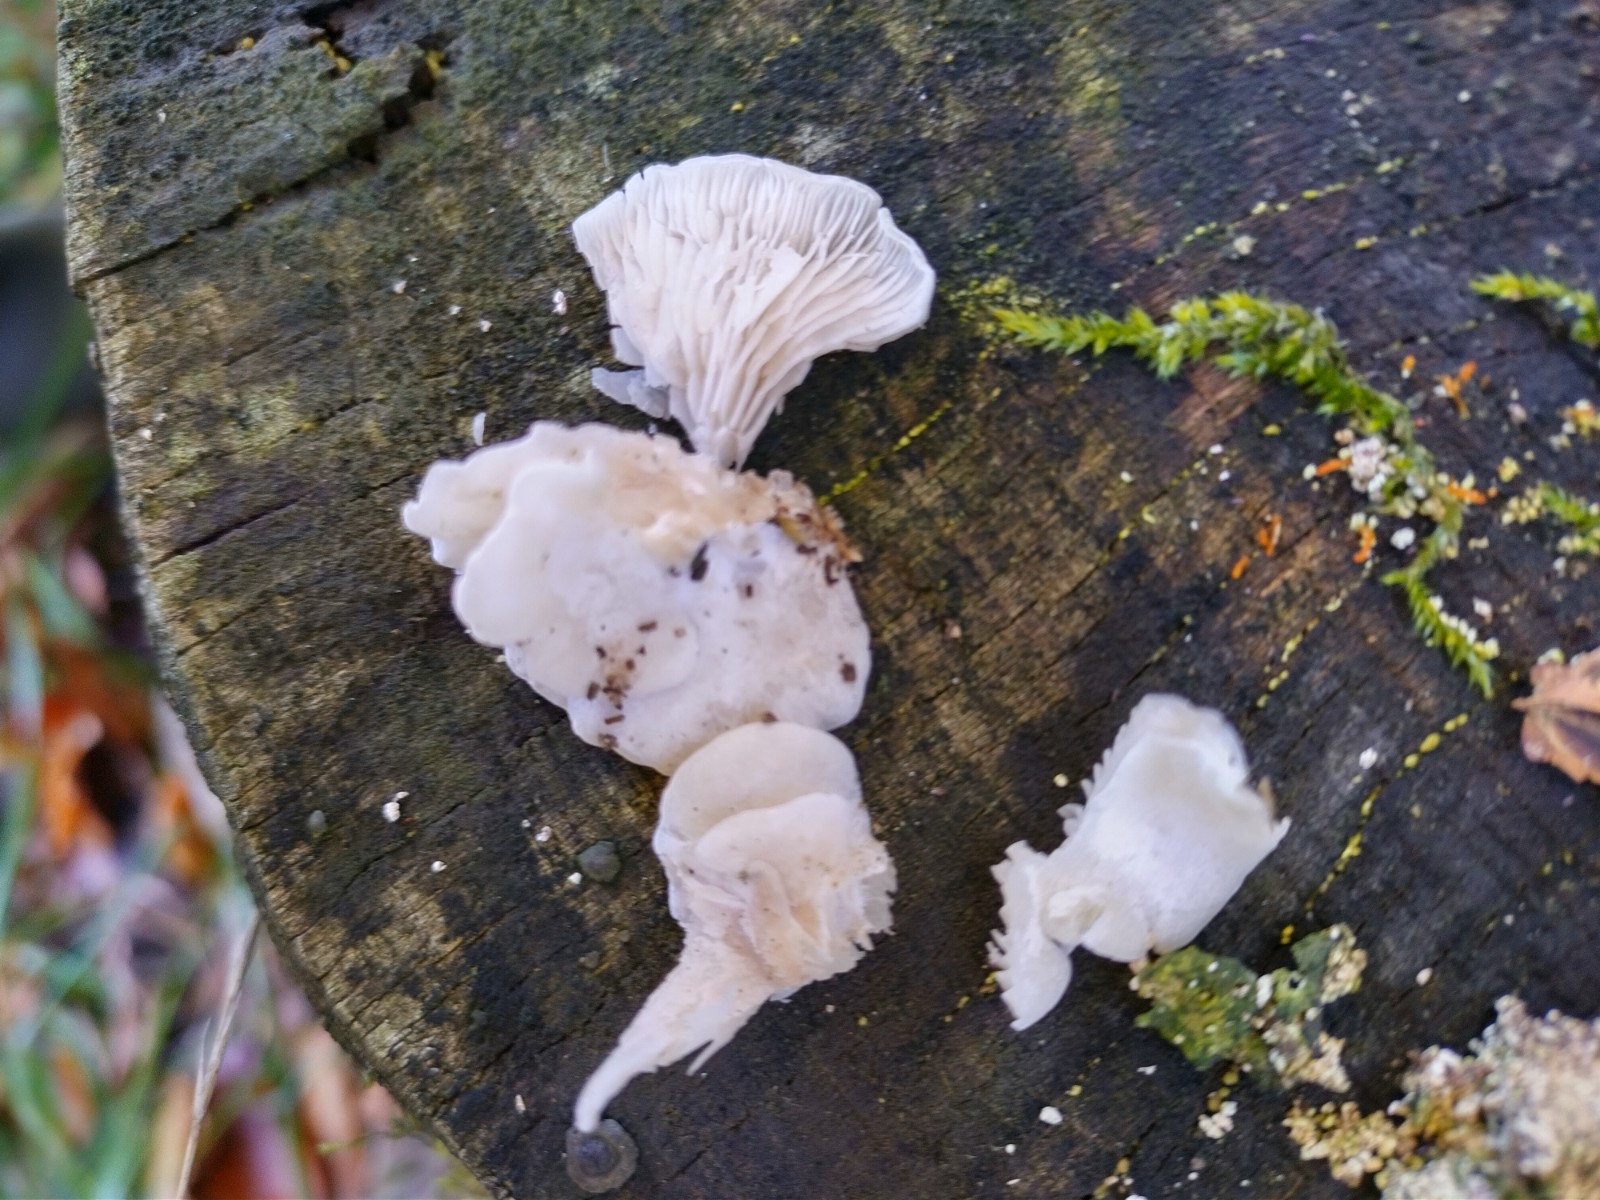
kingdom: Fungi
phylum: Basidiomycota
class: Agaricomycetes
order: Agaricales
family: Entolomataceae
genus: Clitopilus
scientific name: Clitopilus hobsonii
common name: Miller's oysterling
